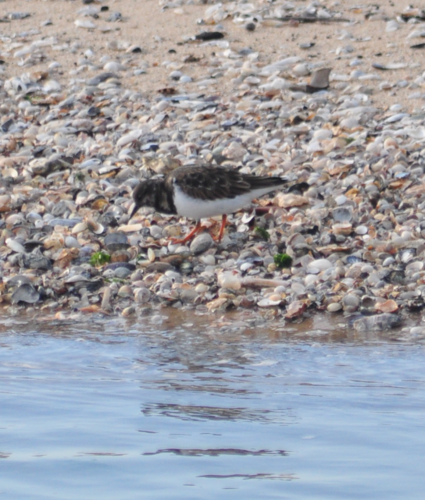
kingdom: Animalia
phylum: Chordata
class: Aves
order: Charadriiformes
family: Scolopacidae
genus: Arenaria
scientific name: Arenaria interpres
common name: Ruddy turnstone
